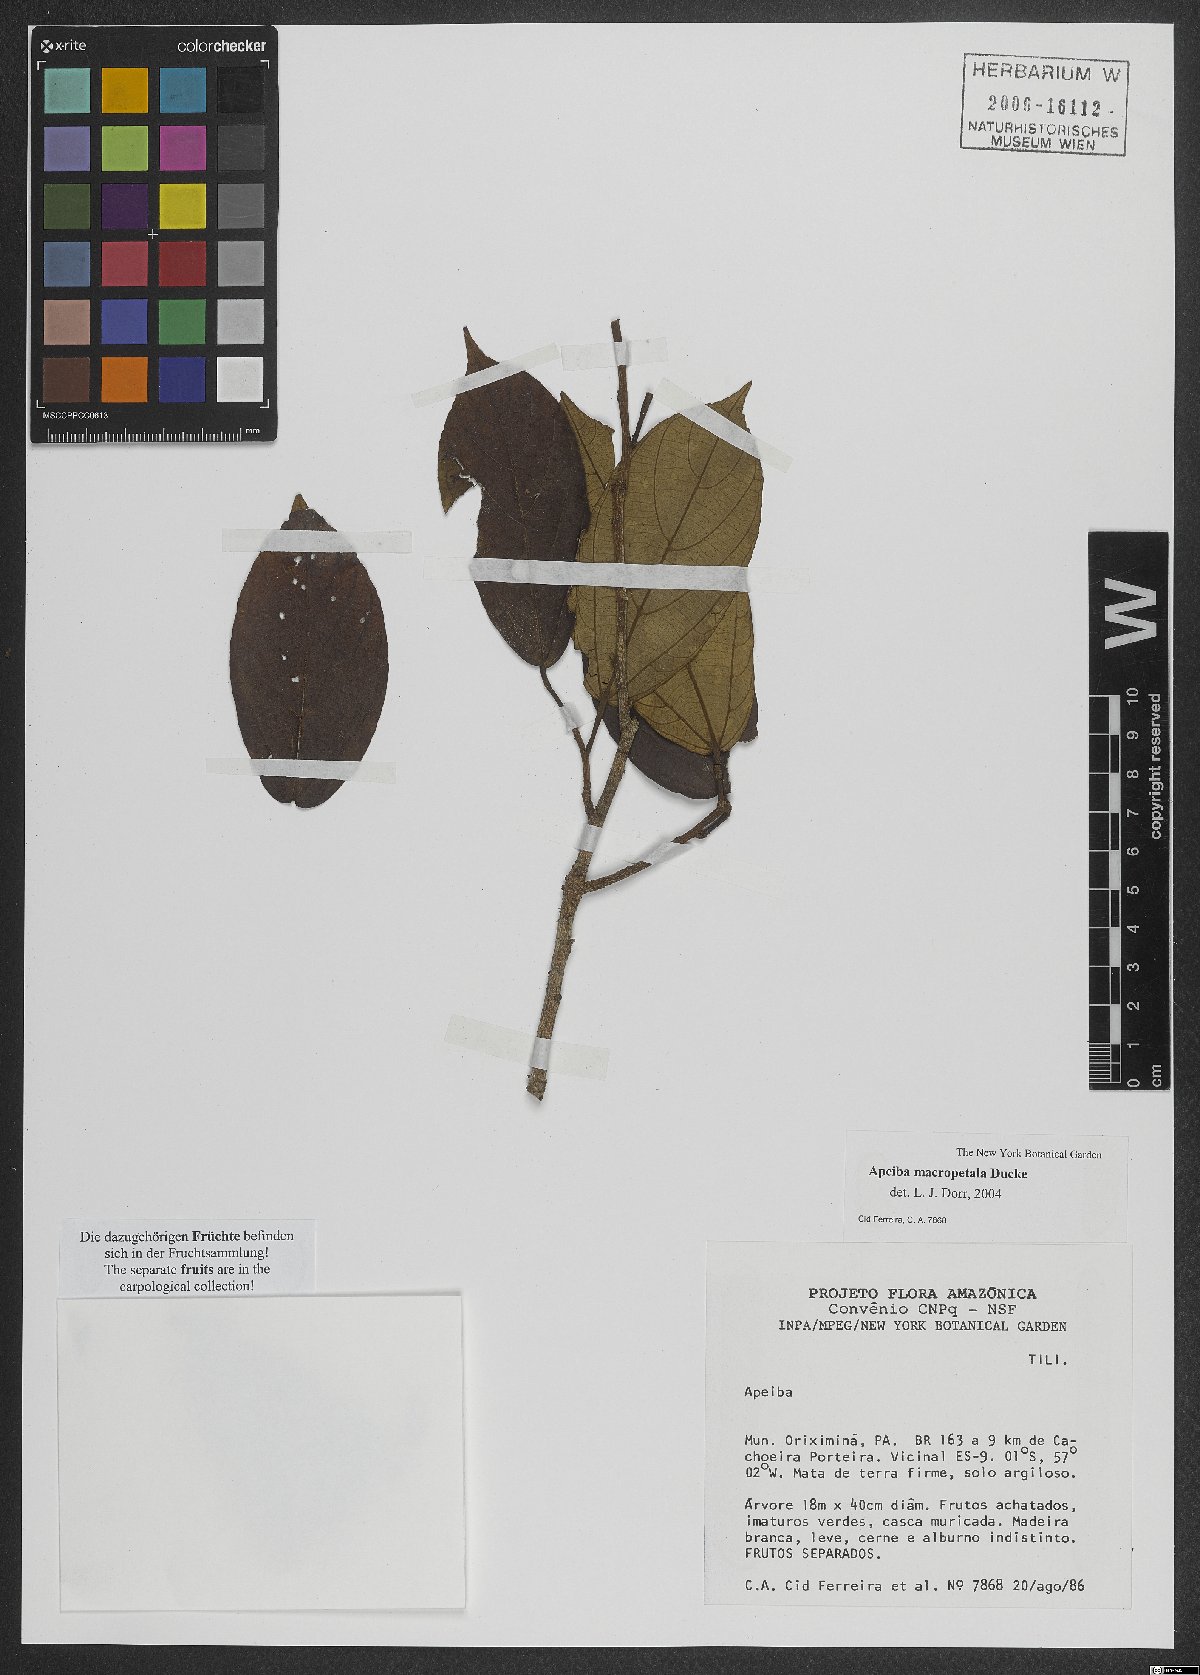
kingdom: Plantae
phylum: Tracheophyta
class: Magnoliopsida
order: Malvales
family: Malvaceae
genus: Apeiba
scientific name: Apeiba macropetala
